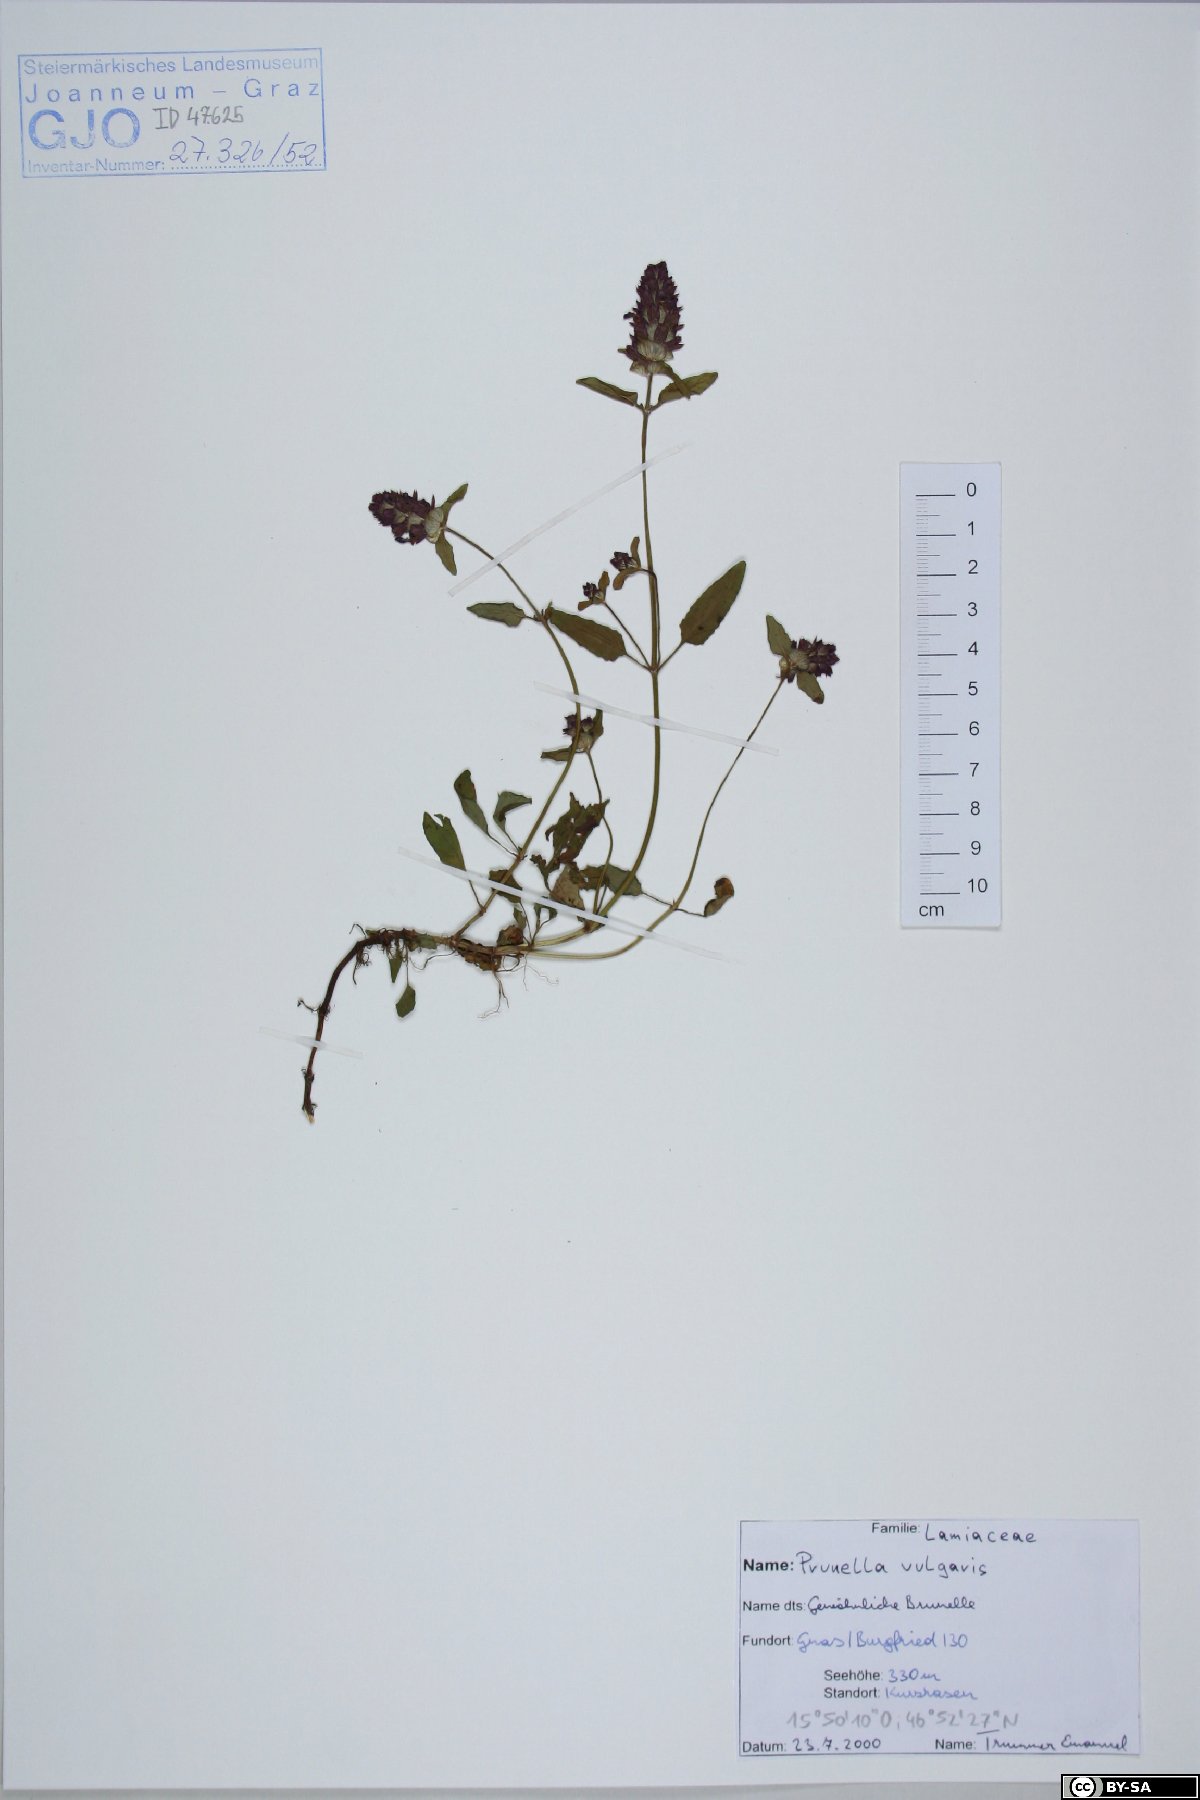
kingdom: Plantae
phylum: Tracheophyta
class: Magnoliopsida
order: Lamiales
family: Lamiaceae
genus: Prunella
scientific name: Prunella vulgaris
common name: Heal-all
